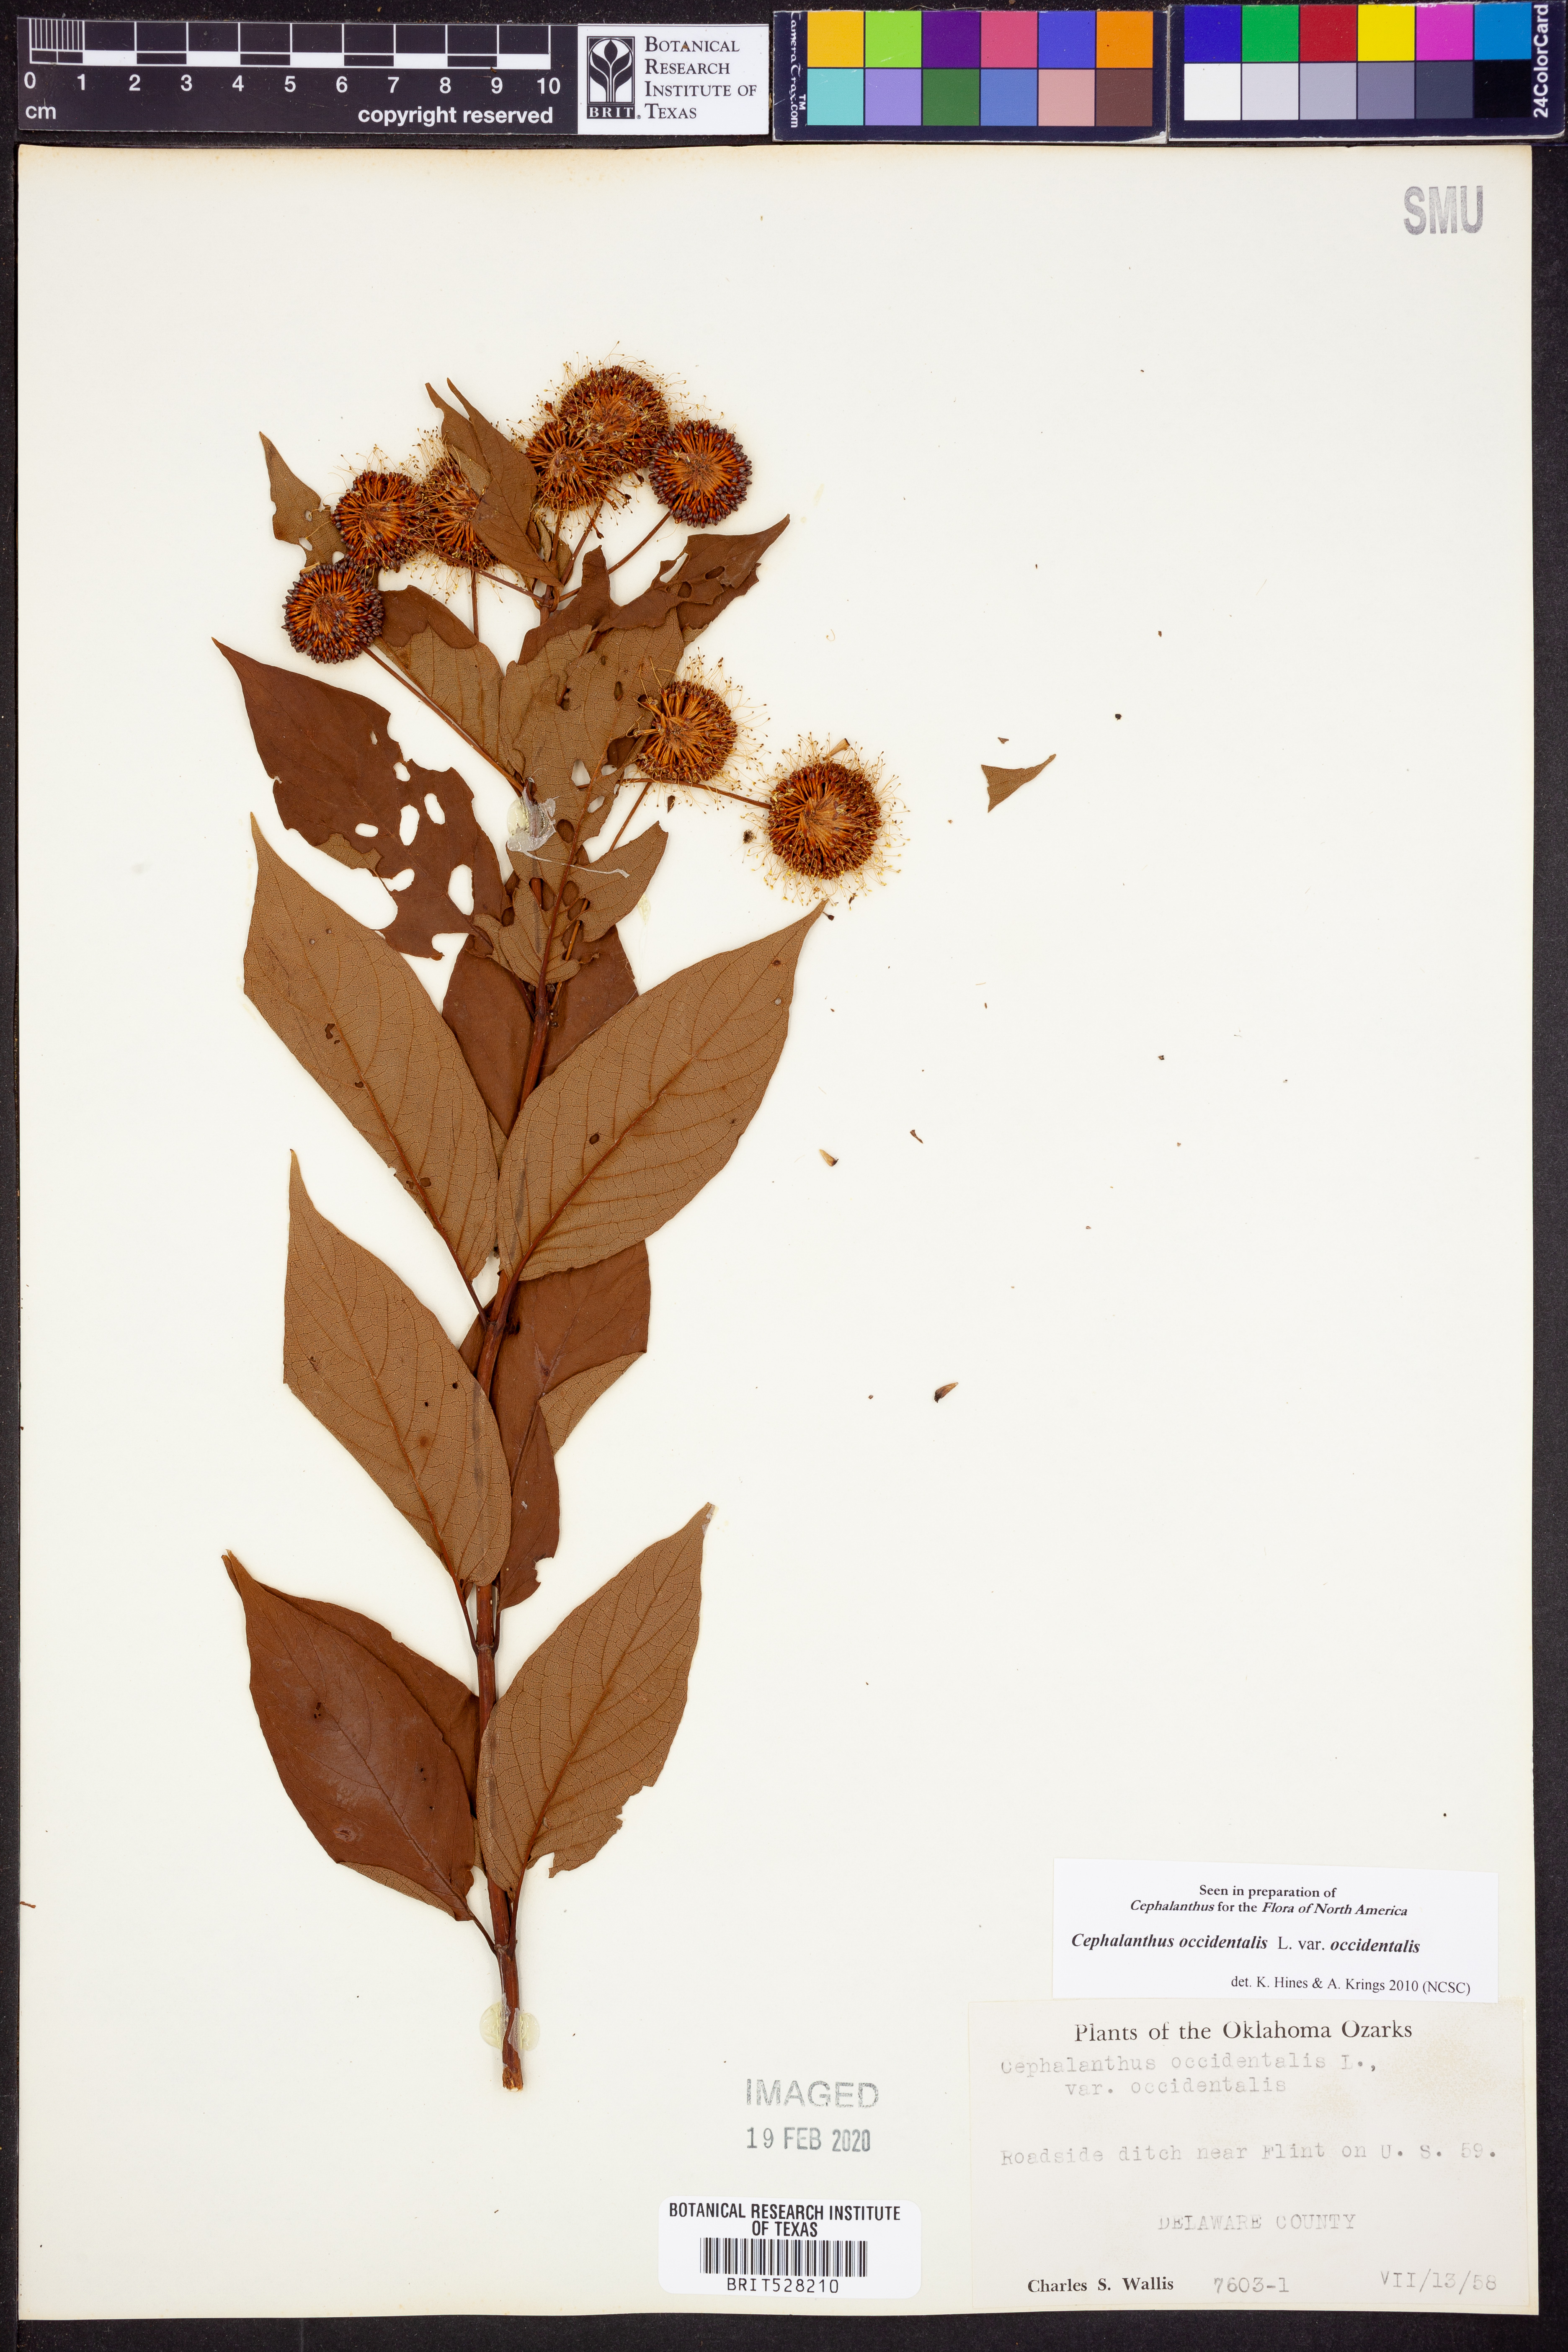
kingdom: Plantae
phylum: Tracheophyta
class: Magnoliopsida
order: Gentianales
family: Rubiaceae
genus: Cephalanthus
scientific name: Cephalanthus occidentalis
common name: Button-willow
